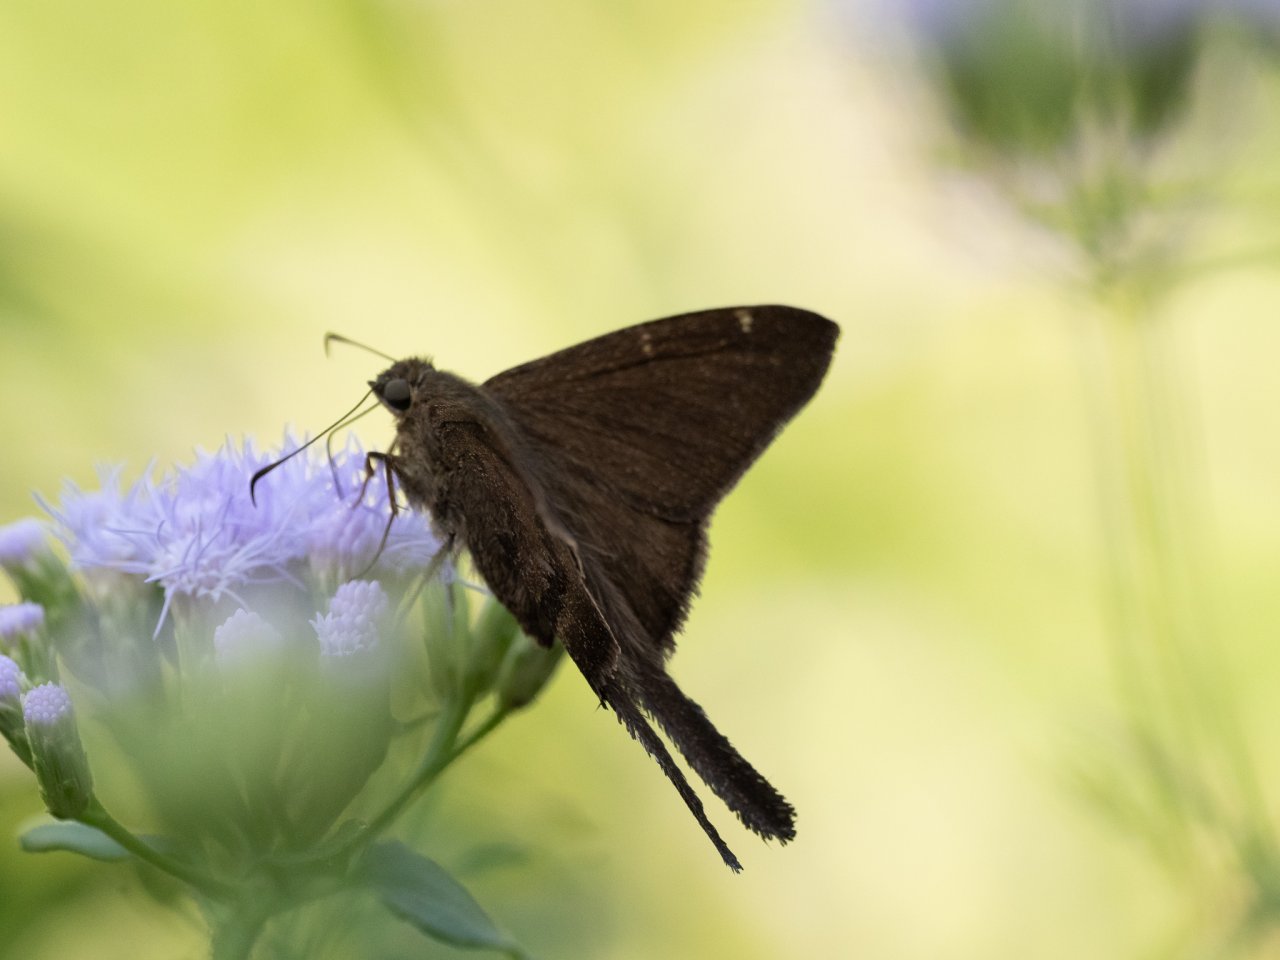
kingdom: Animalia
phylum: Arthropoda
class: Insecta
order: Lepidoptera
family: Hesperiidae
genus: Urbanus
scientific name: Urbanus procne
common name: Brown Longtail
